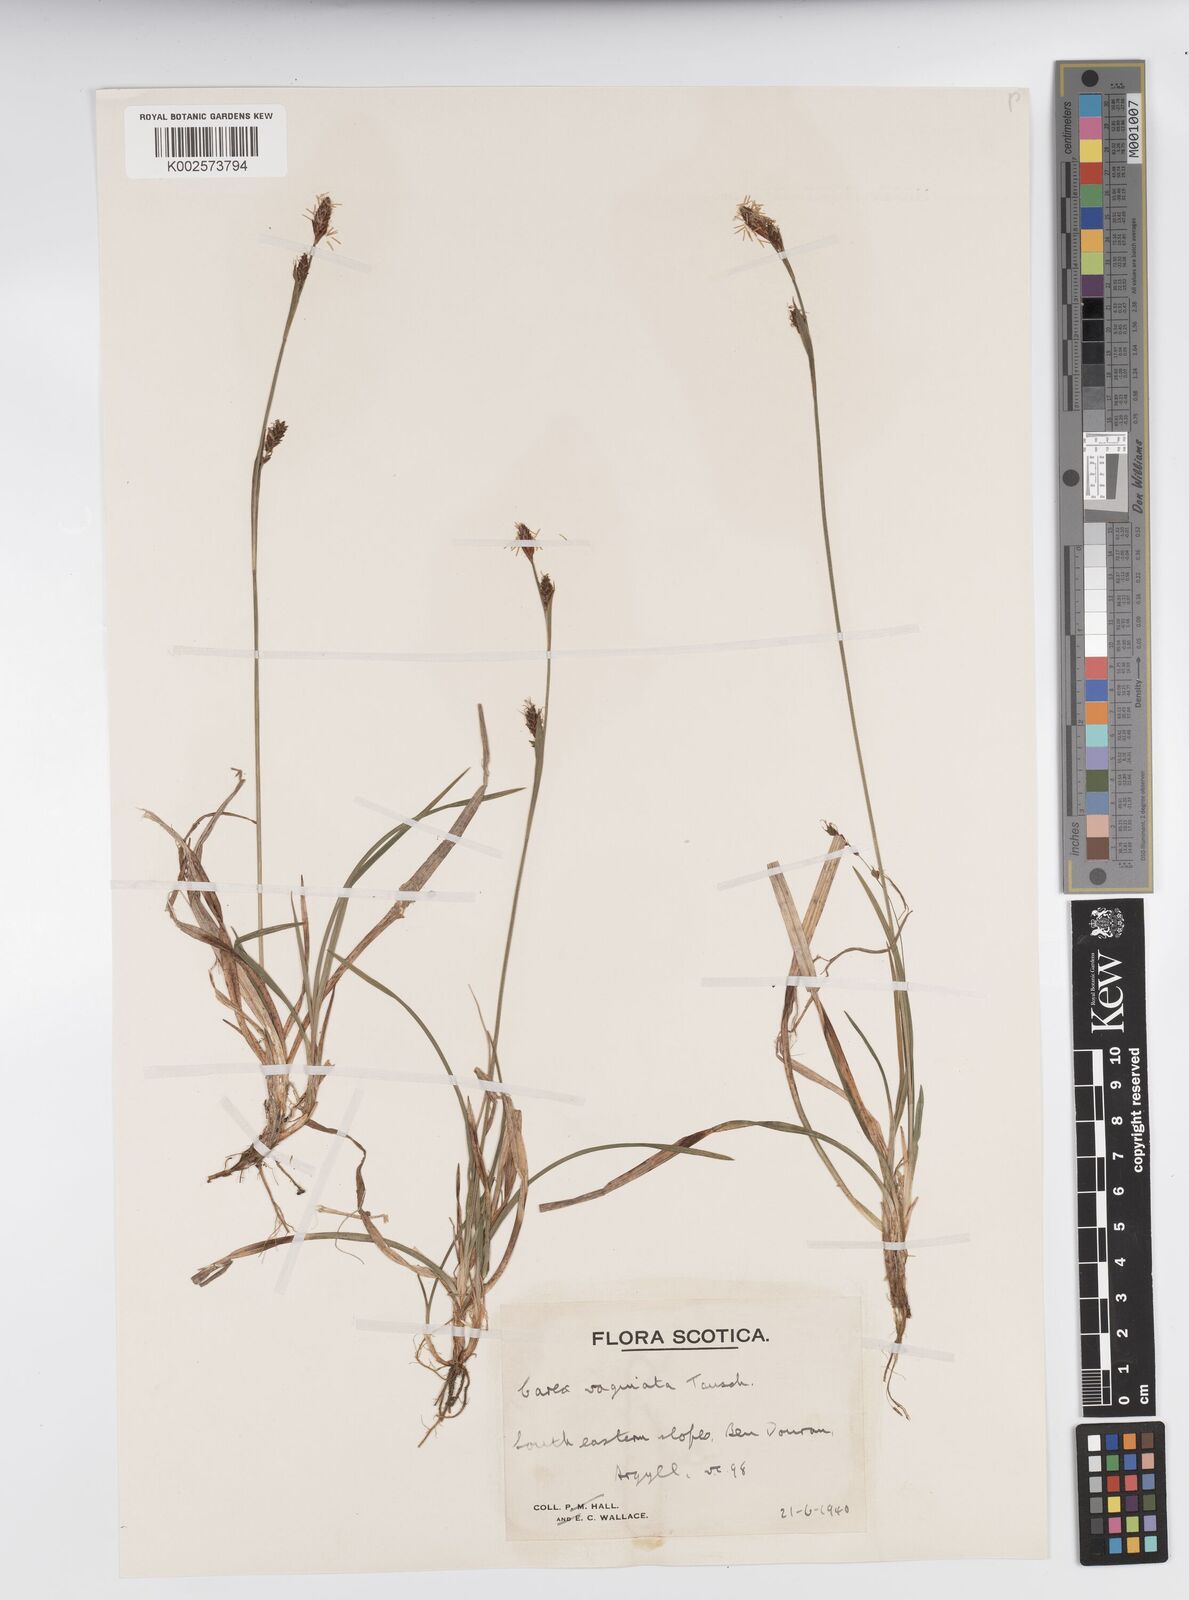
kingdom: Plantae
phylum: Tracheophyta
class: Liliopsida
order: Poales
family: Cyperaceae
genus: Carex
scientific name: Carex vaginata
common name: Sheathed sedge
